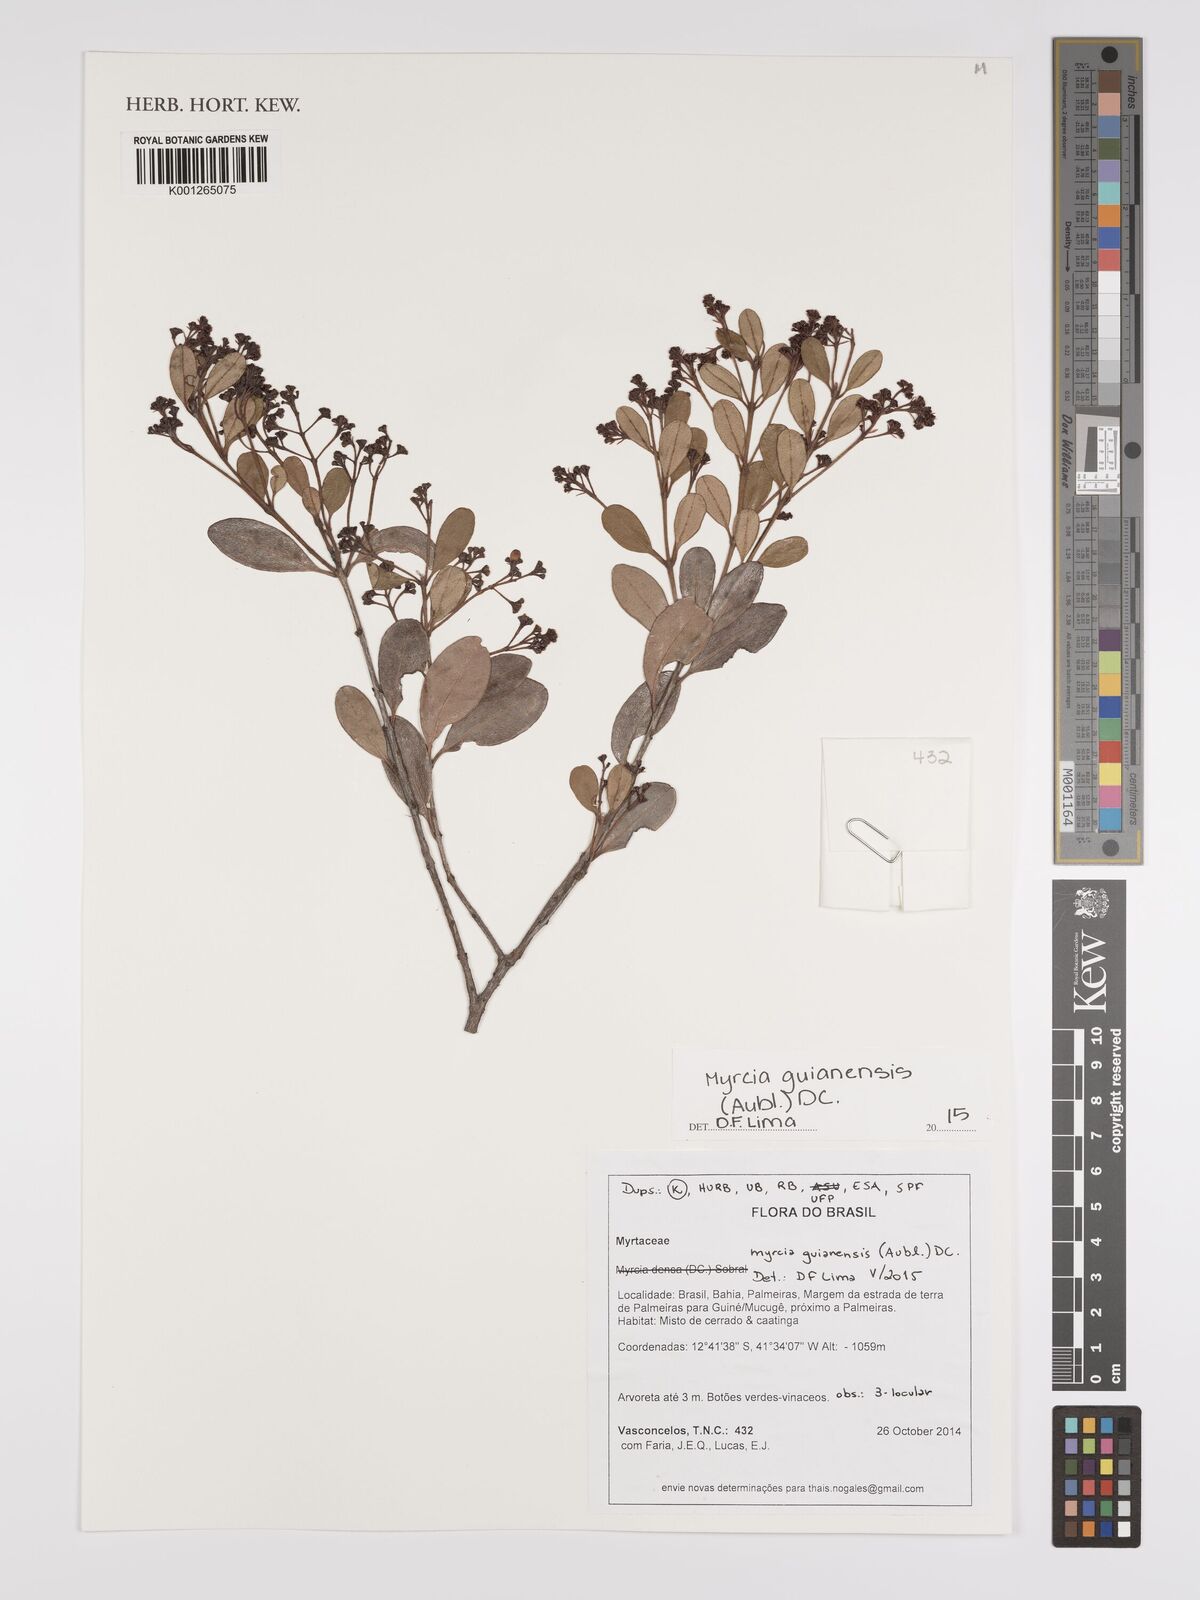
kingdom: Plantae
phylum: Tracheophyta
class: Magnoliopsida
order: Myrtales
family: Myrtaceae
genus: Myrcia
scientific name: Myrcia guianensis
